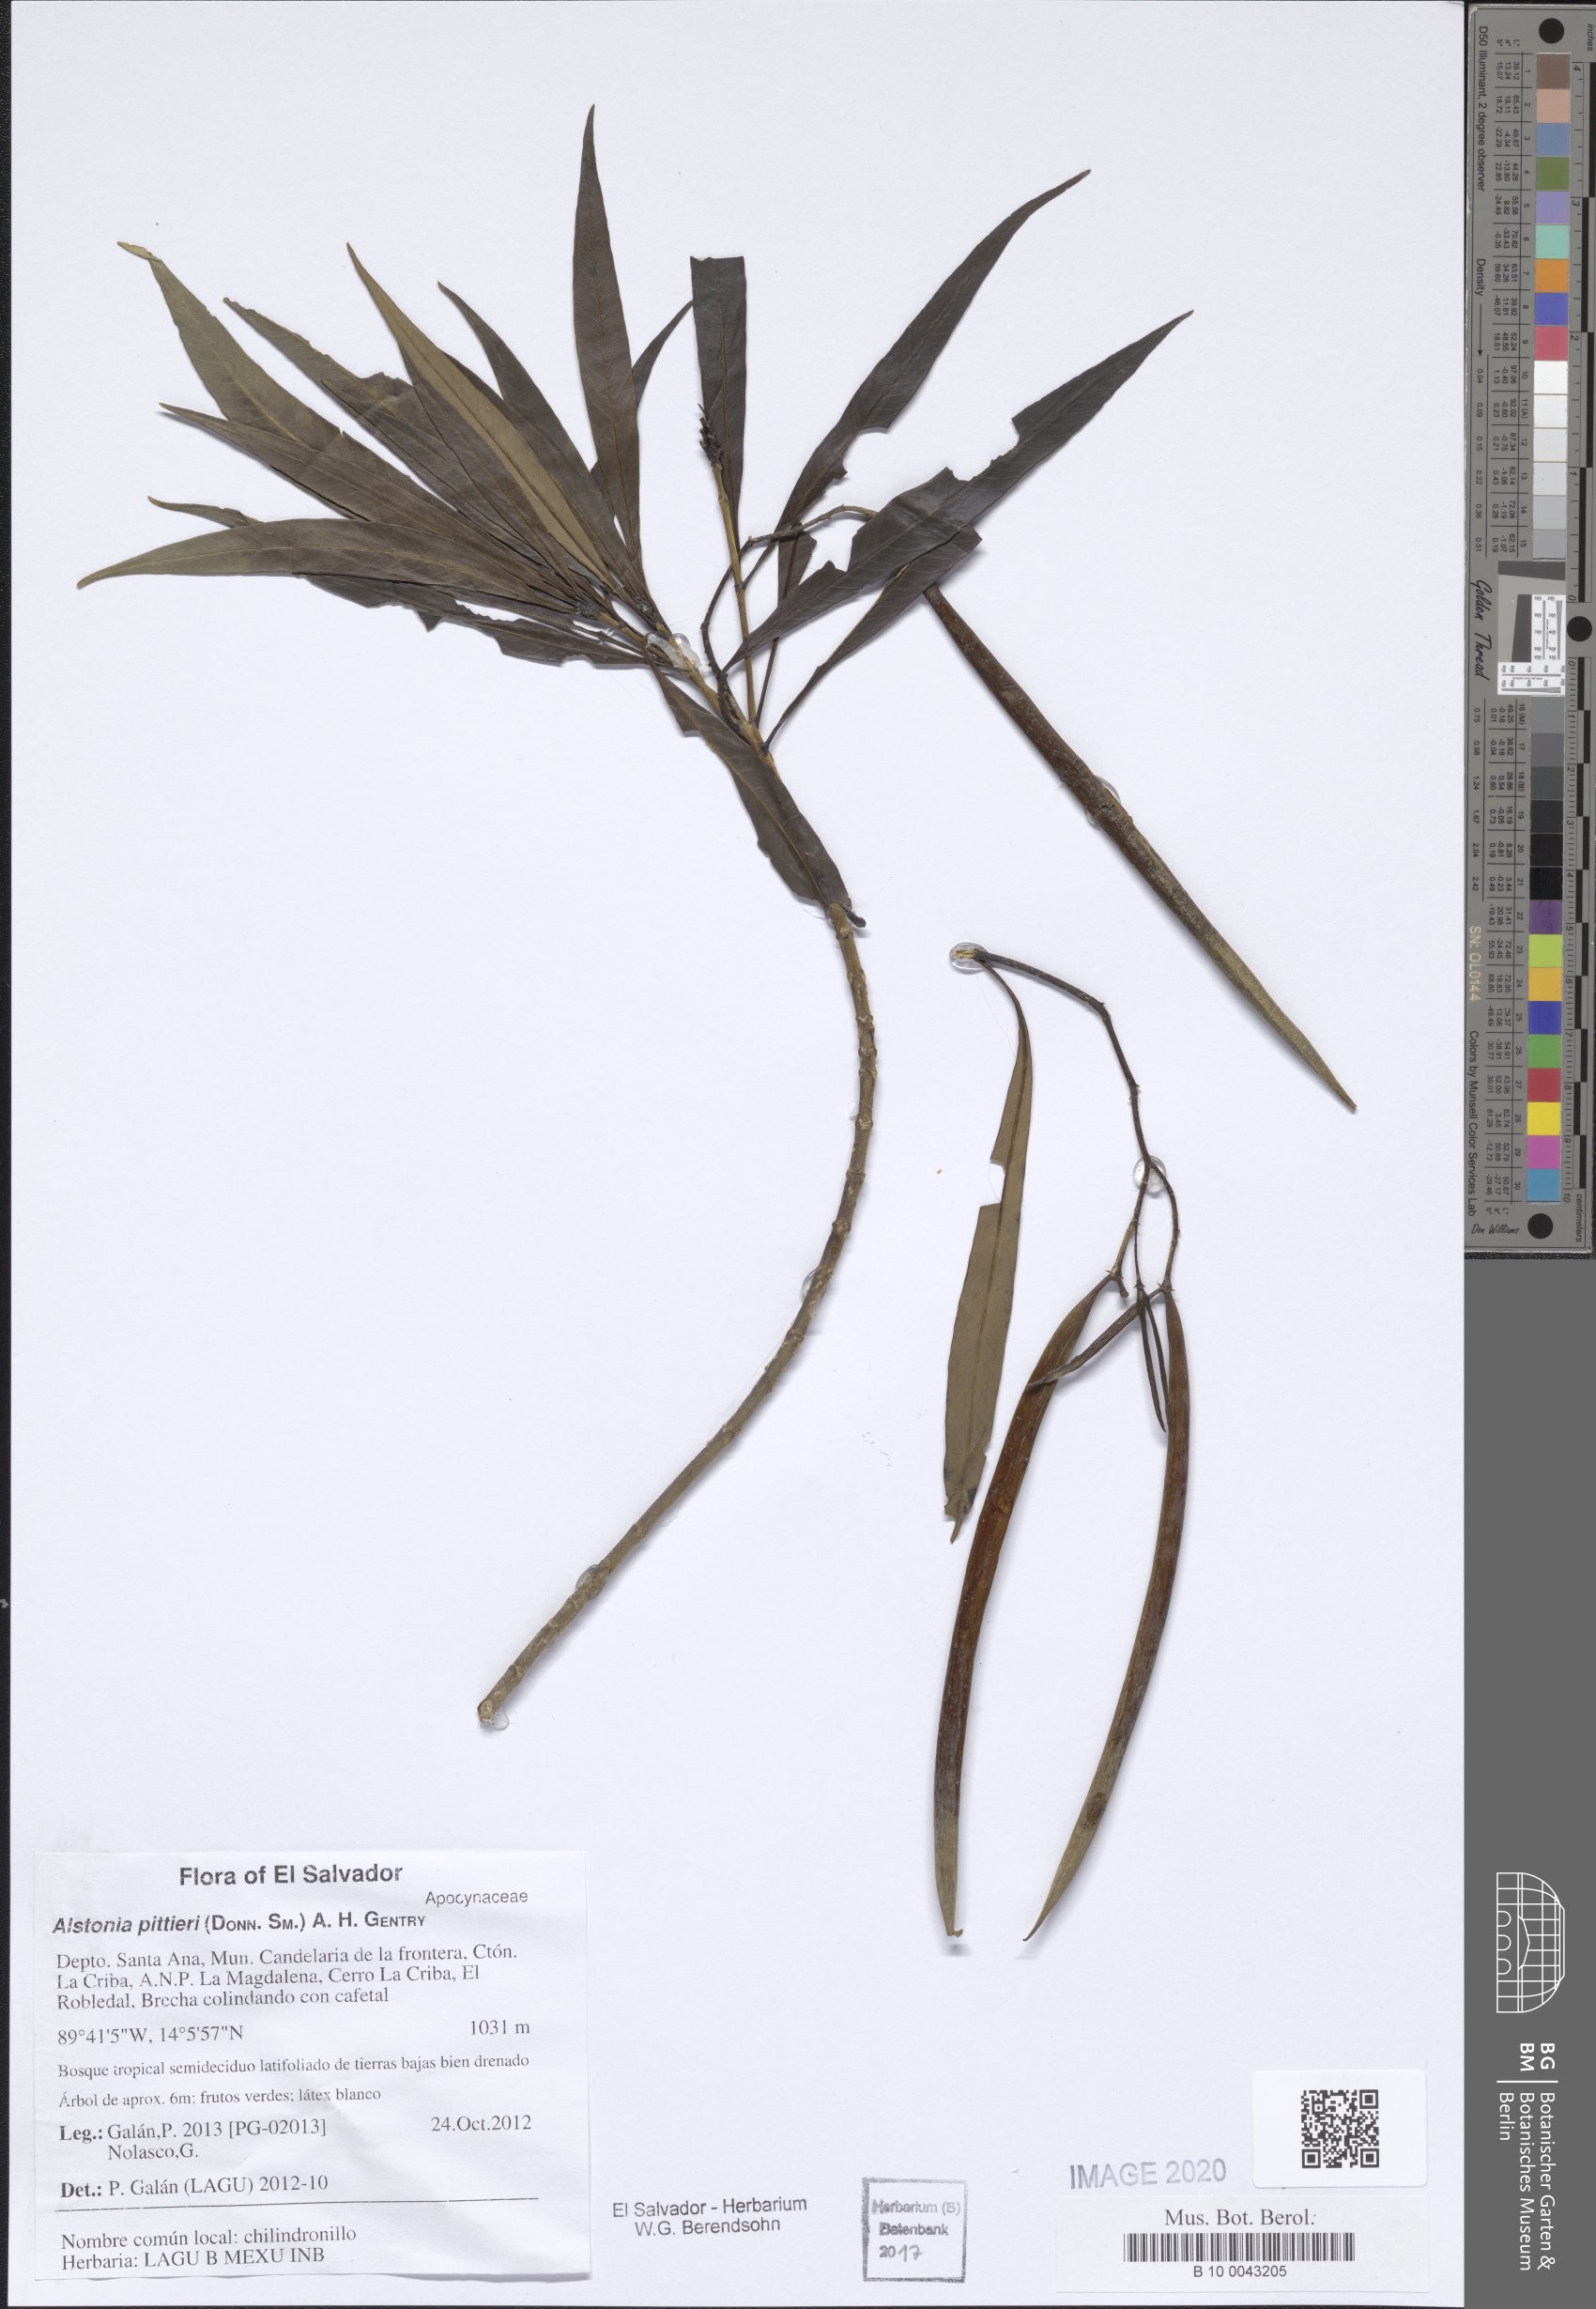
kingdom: Plantae
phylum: Tracheophyta
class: Magnoliopsida
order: Gentianales
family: Apocynaceae
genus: Tonduzia
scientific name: Tonduzia longifolia
